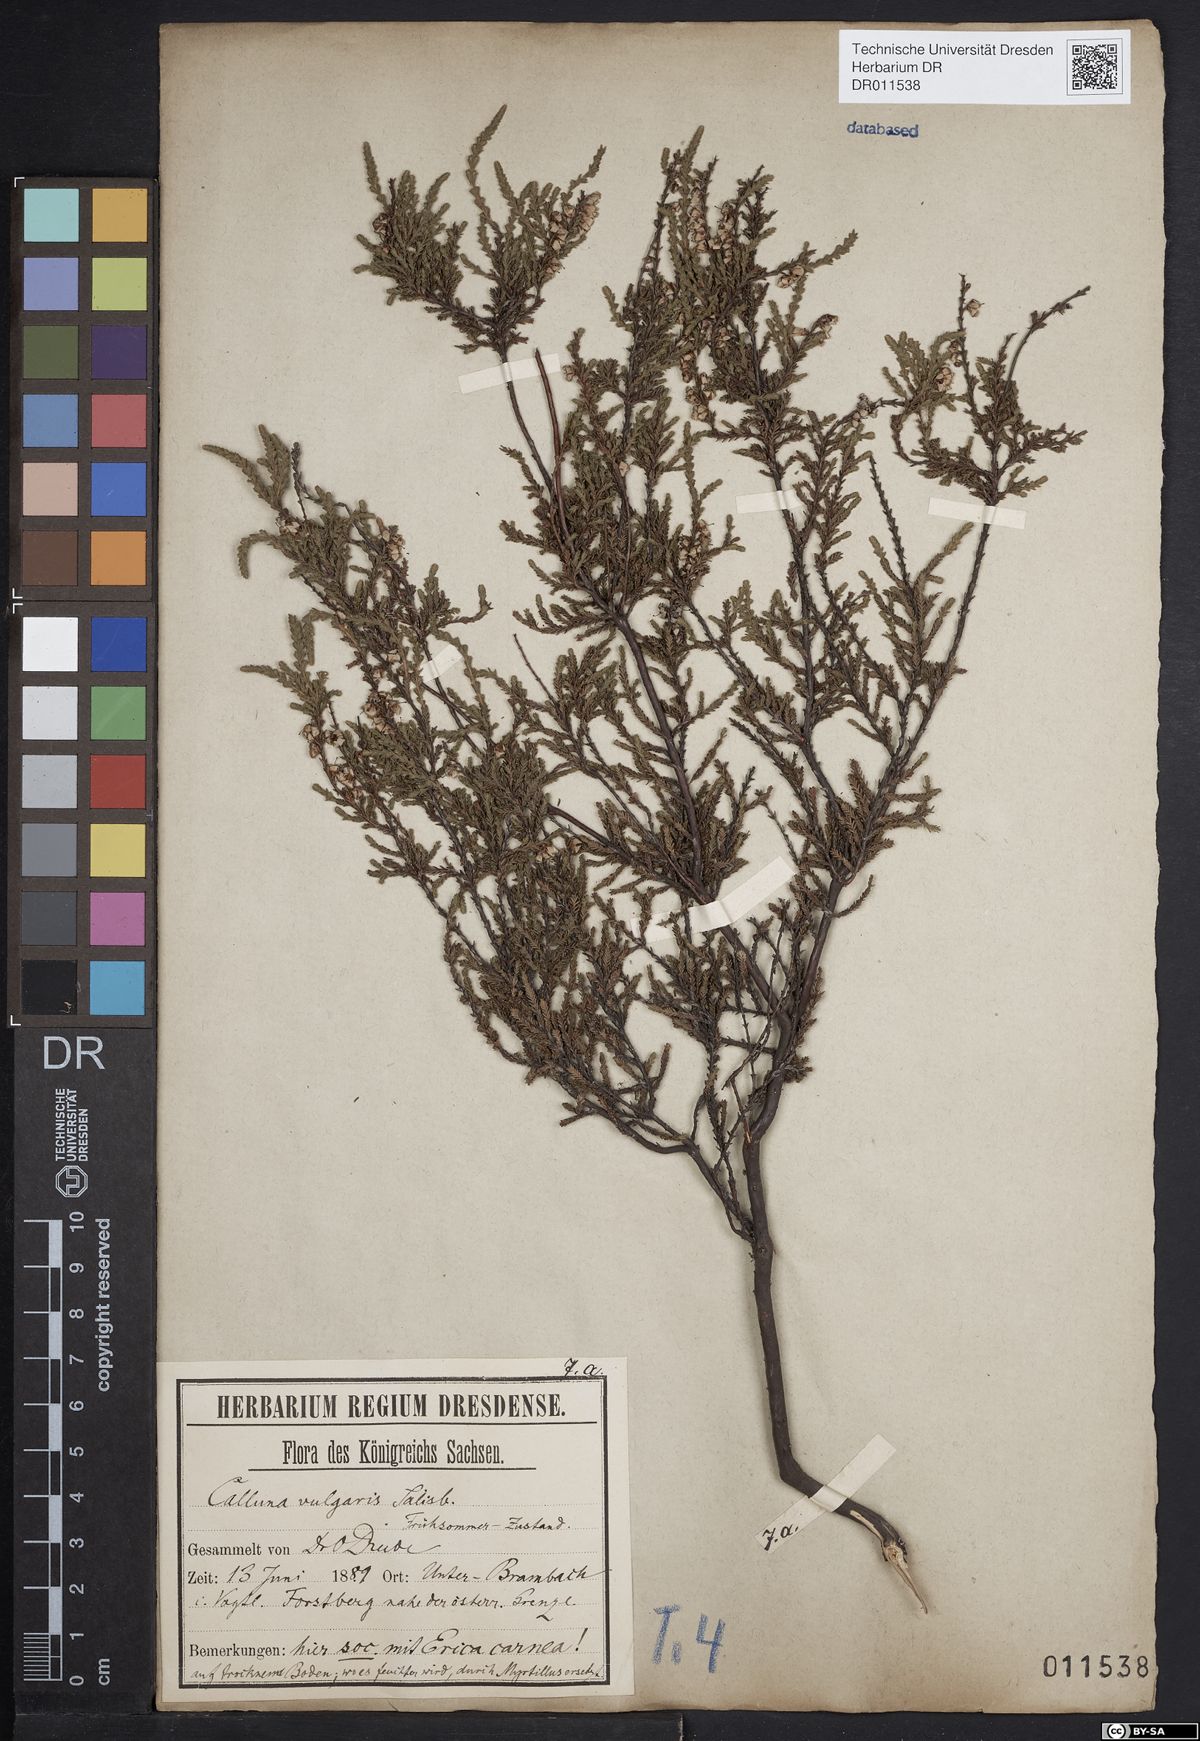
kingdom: Plantae
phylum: Tracheophyta
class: Magnoliopsida
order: Ericales
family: Ericaceae
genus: Calluna
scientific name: Calluna vulgaris
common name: Heather
